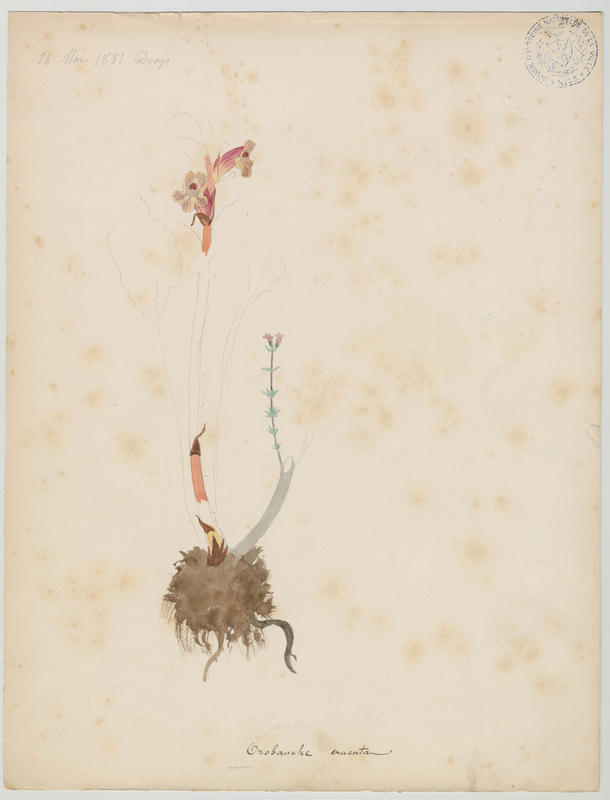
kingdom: Plantae
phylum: Tracheophyta
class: Magnoliopsida
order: Lamiales
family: Orobanchaceae
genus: Orobanche
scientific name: Orobanche gracilis
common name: Slender broomrape
